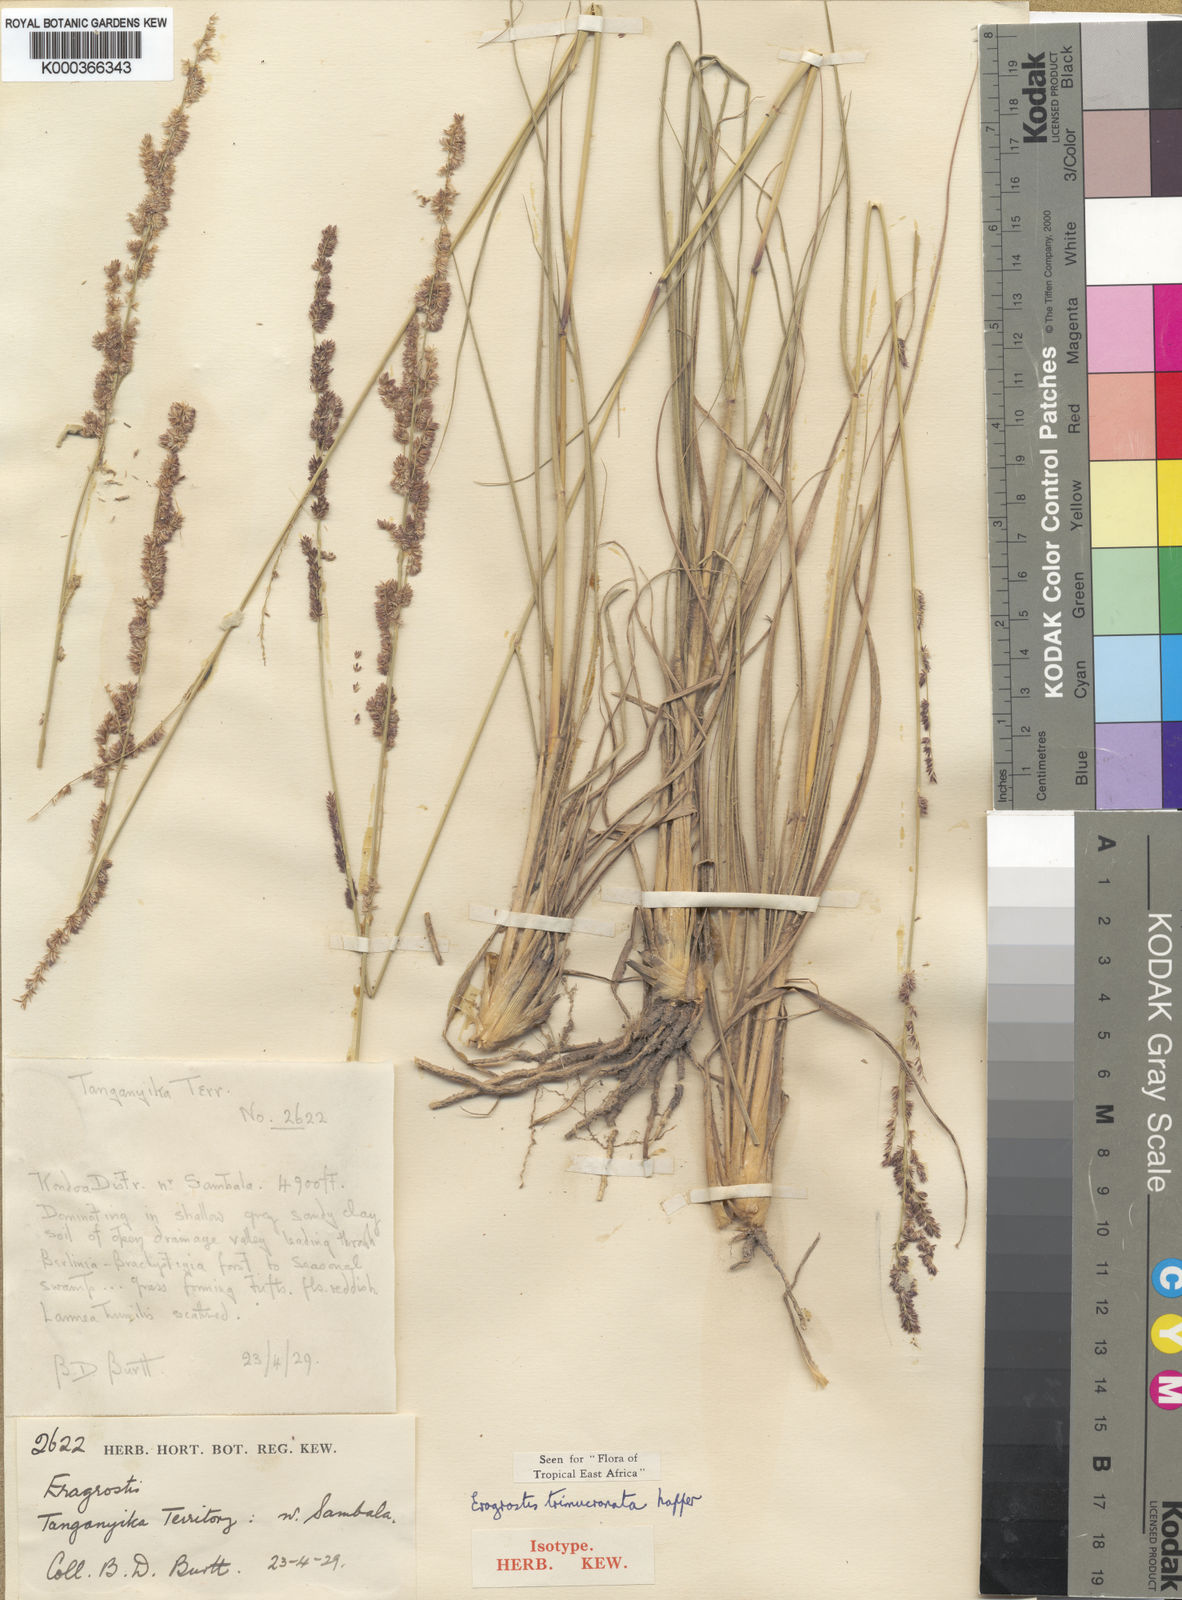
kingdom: Plantae
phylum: Tracheophyta
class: Liliopsida
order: Poales
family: Poaceae
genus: Eragrostis
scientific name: Eragrostis trimucronata
